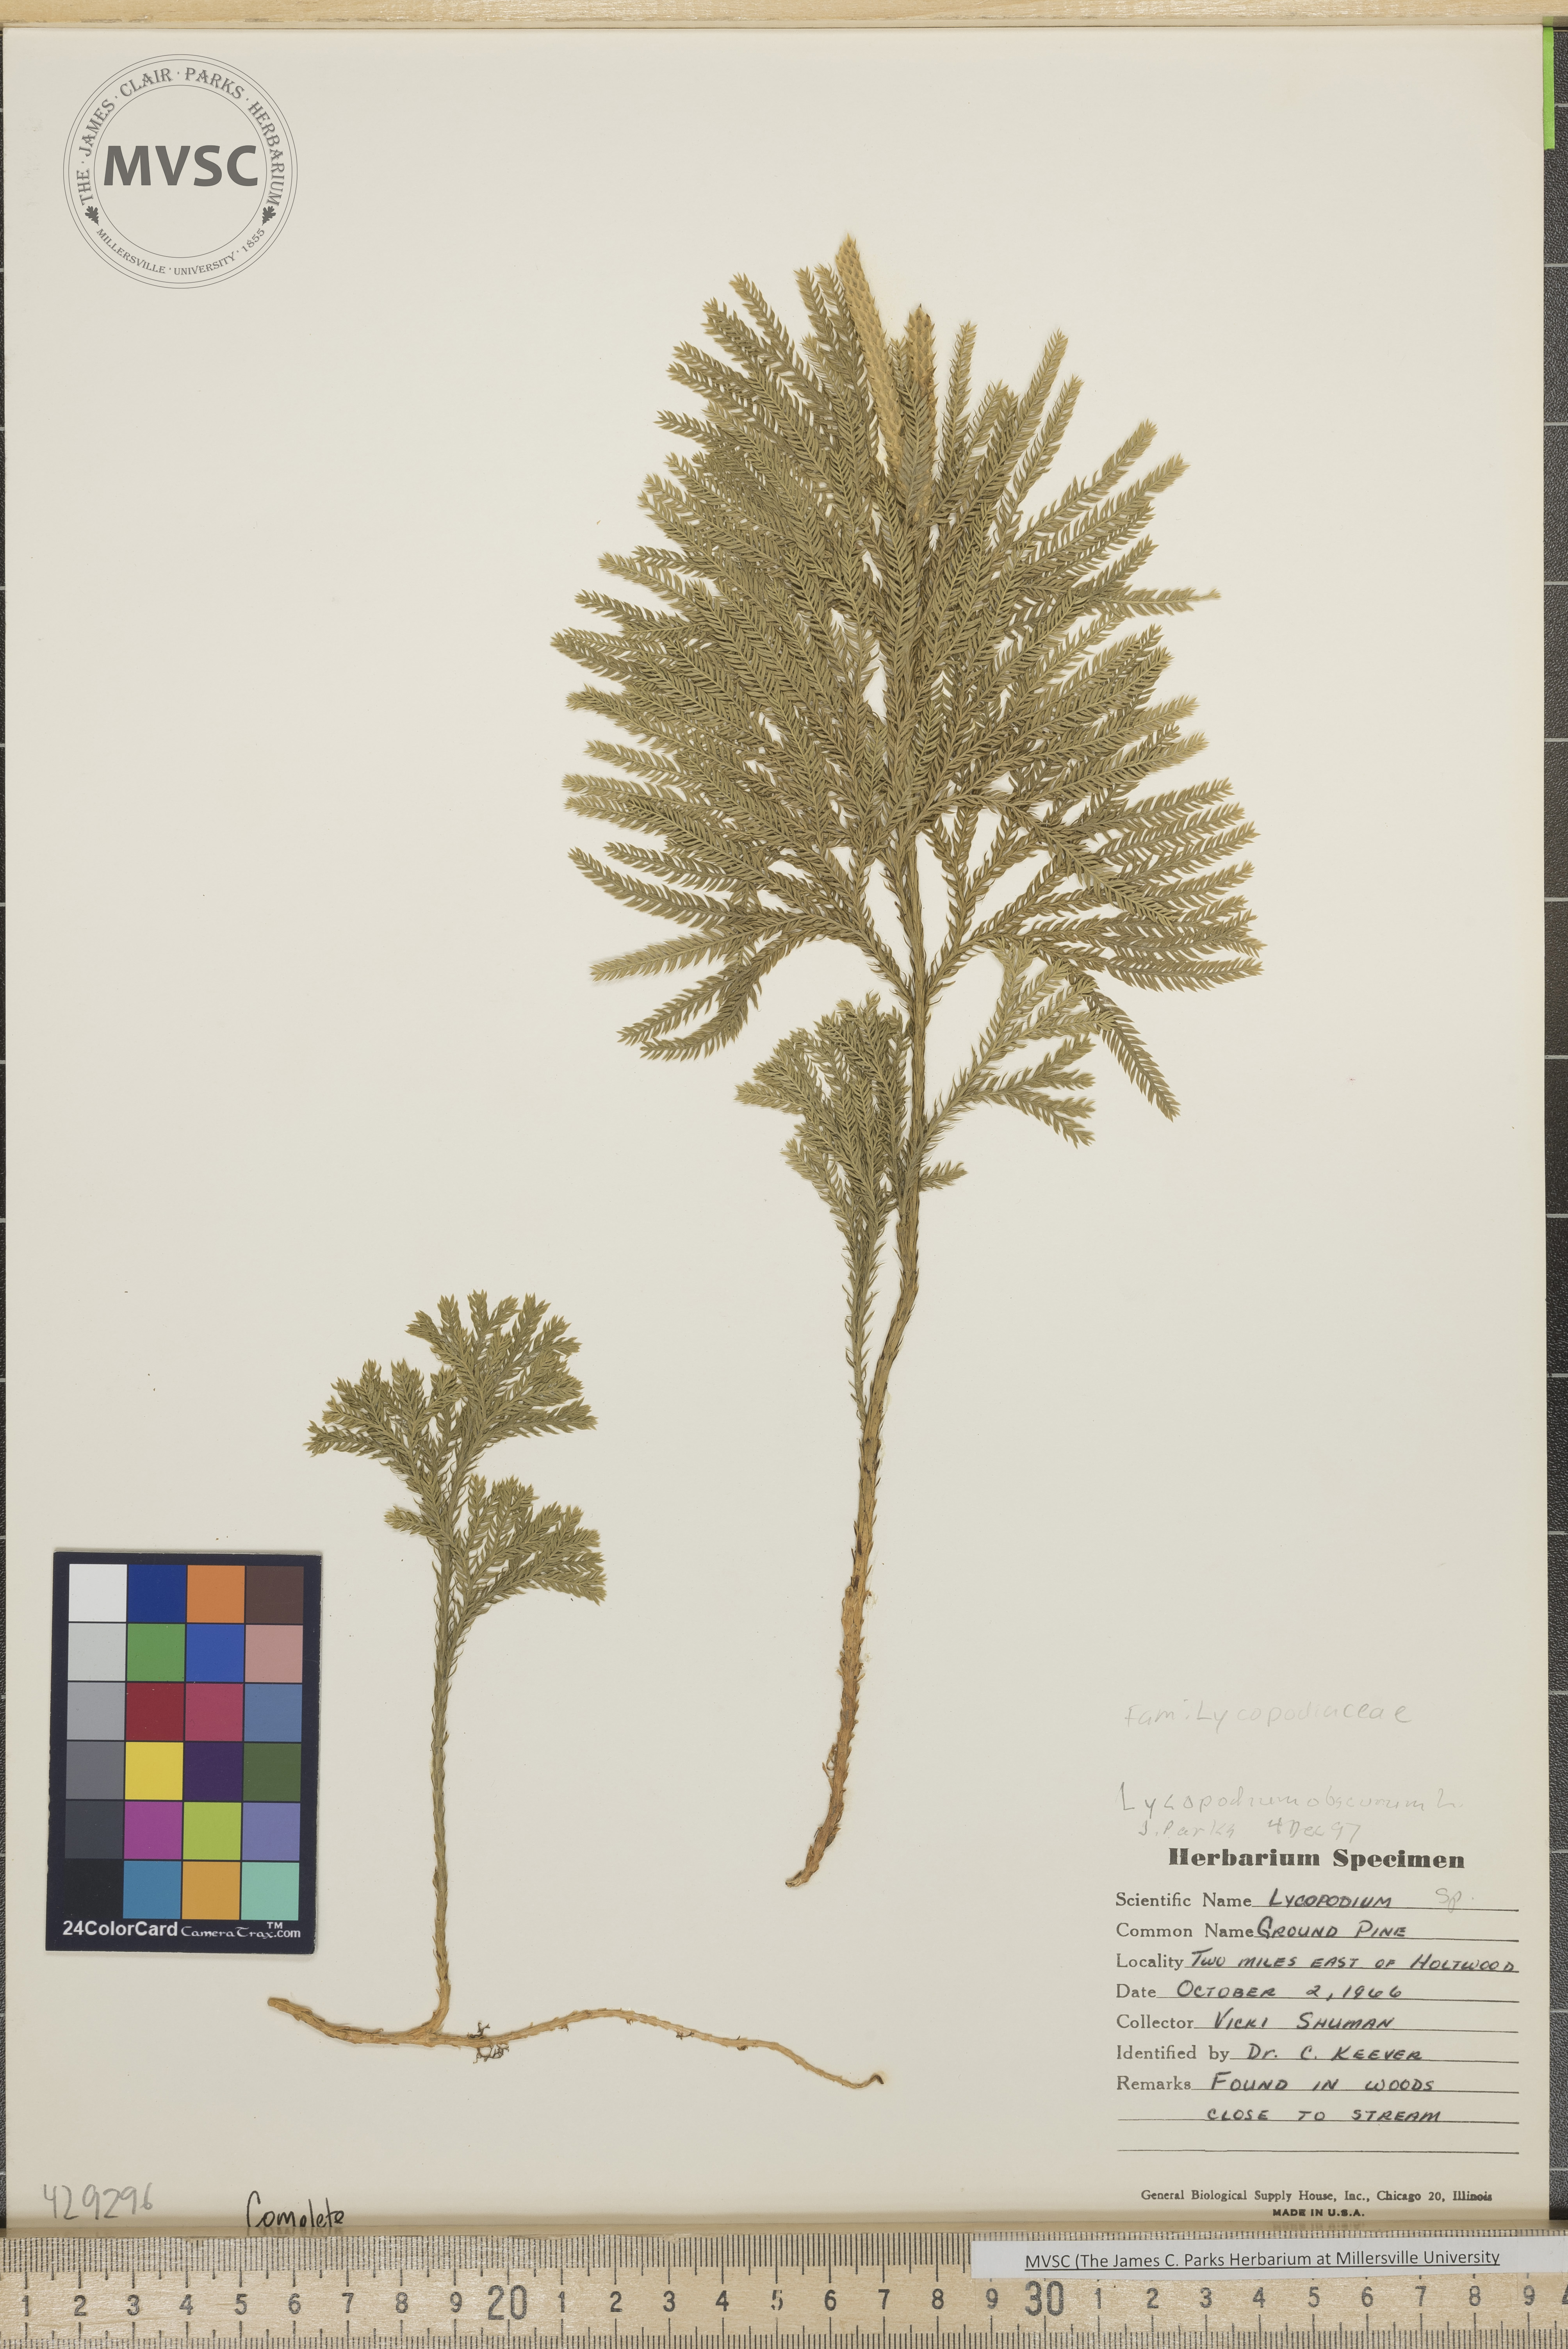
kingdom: Plantae
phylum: Tracheophyta
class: Lycopodiopsida
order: Lycopodiales
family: Lycopodiaceae
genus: Dendrolycopodium
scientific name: Dendrolycopodium obscurum
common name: Common ground-pine
